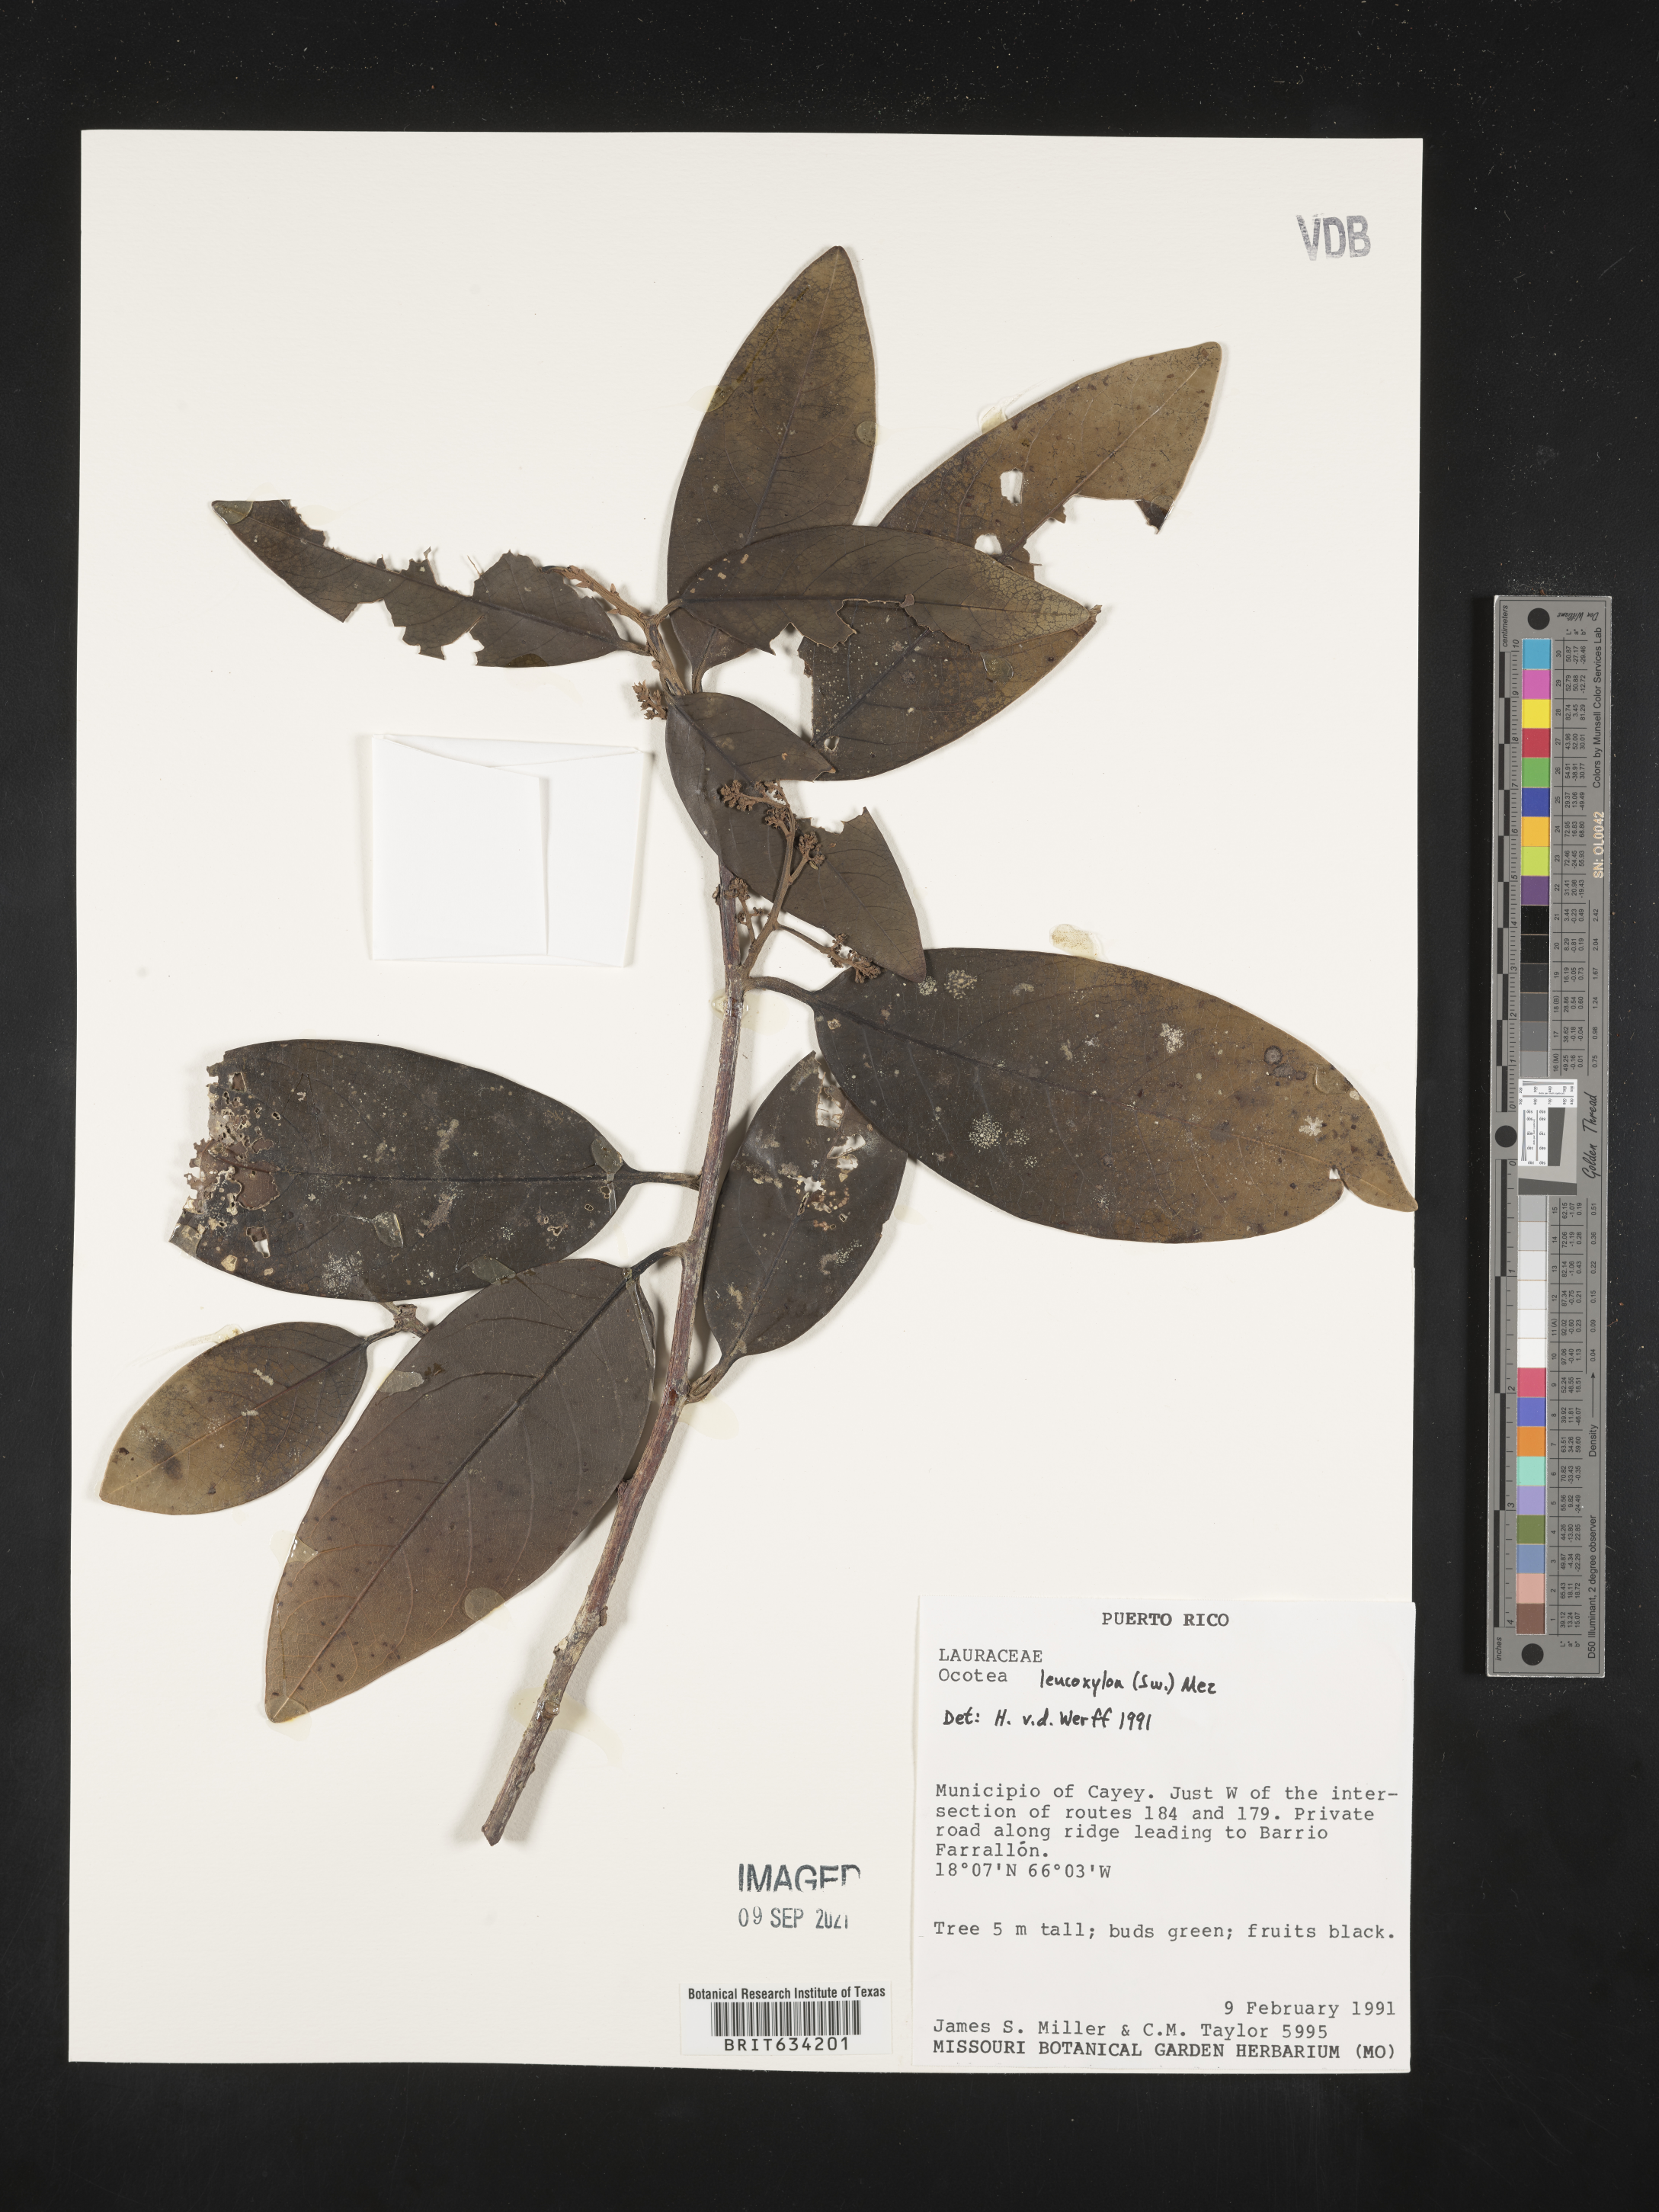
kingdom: Plantae
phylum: Tracheophyta
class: Magnoliopsida
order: Laurales
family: Lauraceae
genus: Nectandra
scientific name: Nectandra
